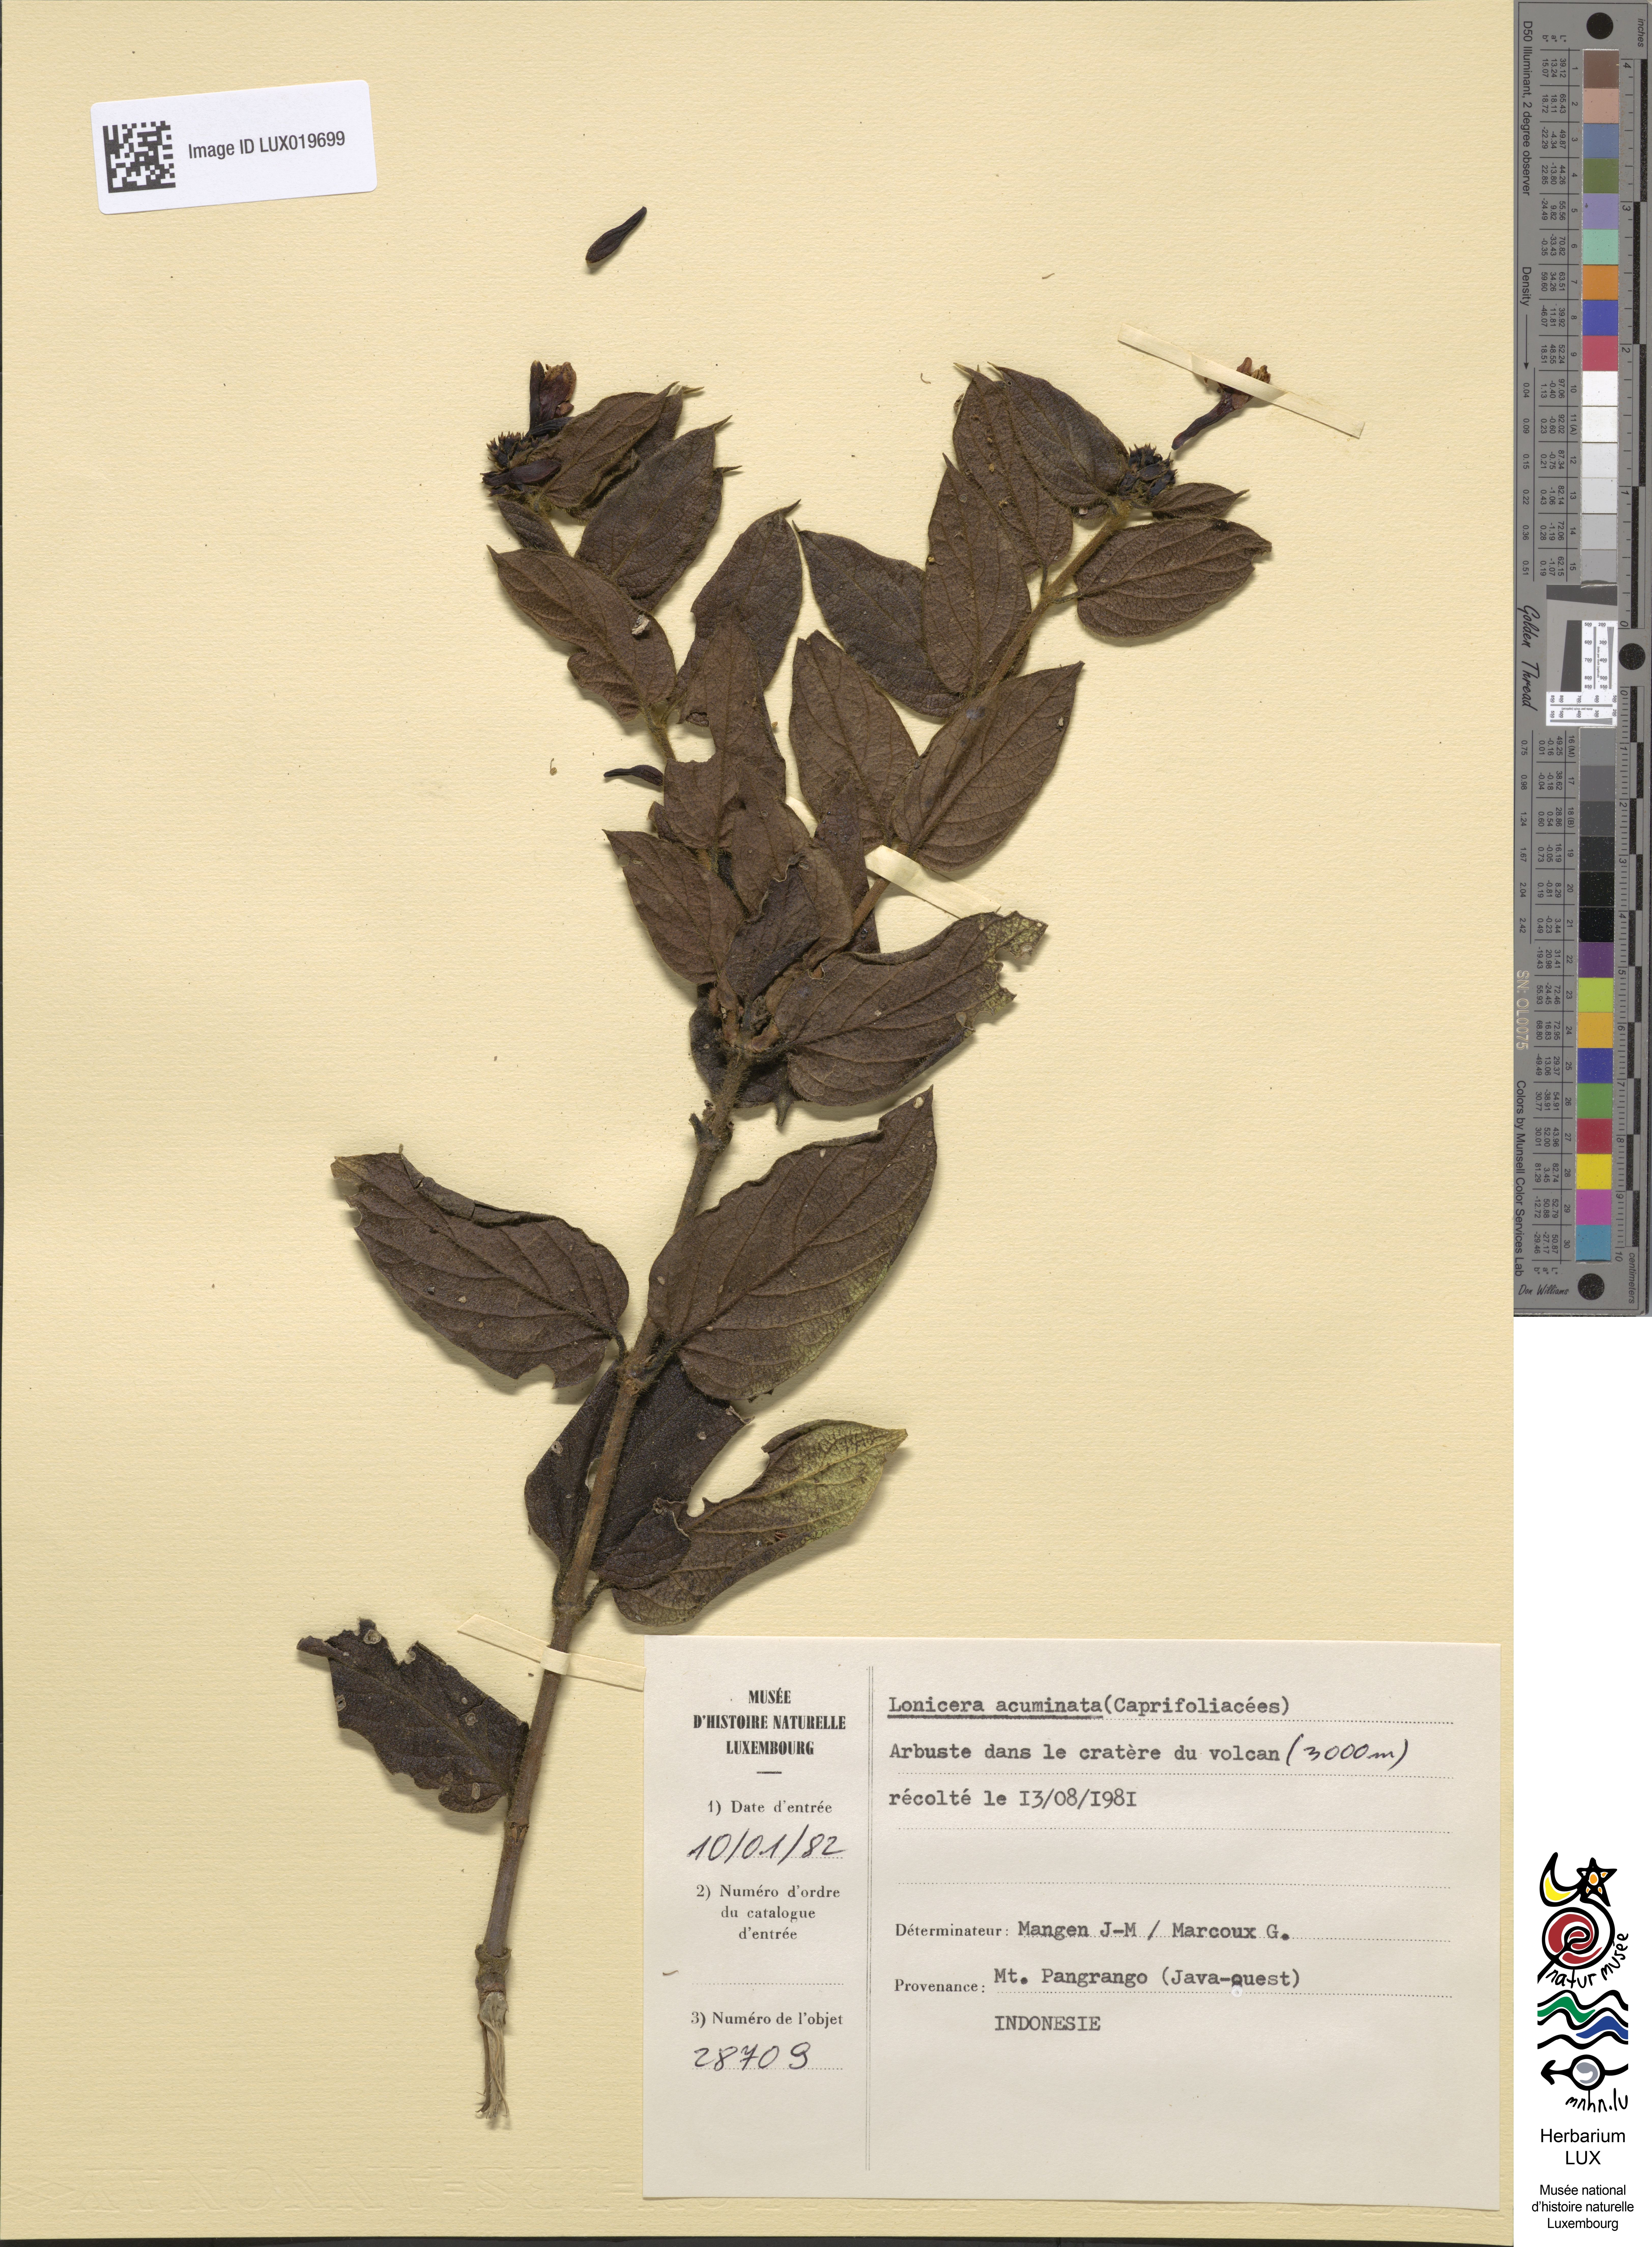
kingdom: Plantae
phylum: Tracheophyta
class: Magnoliopsida
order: Dipsacales
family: Caprifoliaceae
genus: Lonicera
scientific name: Lonicera acuminata
